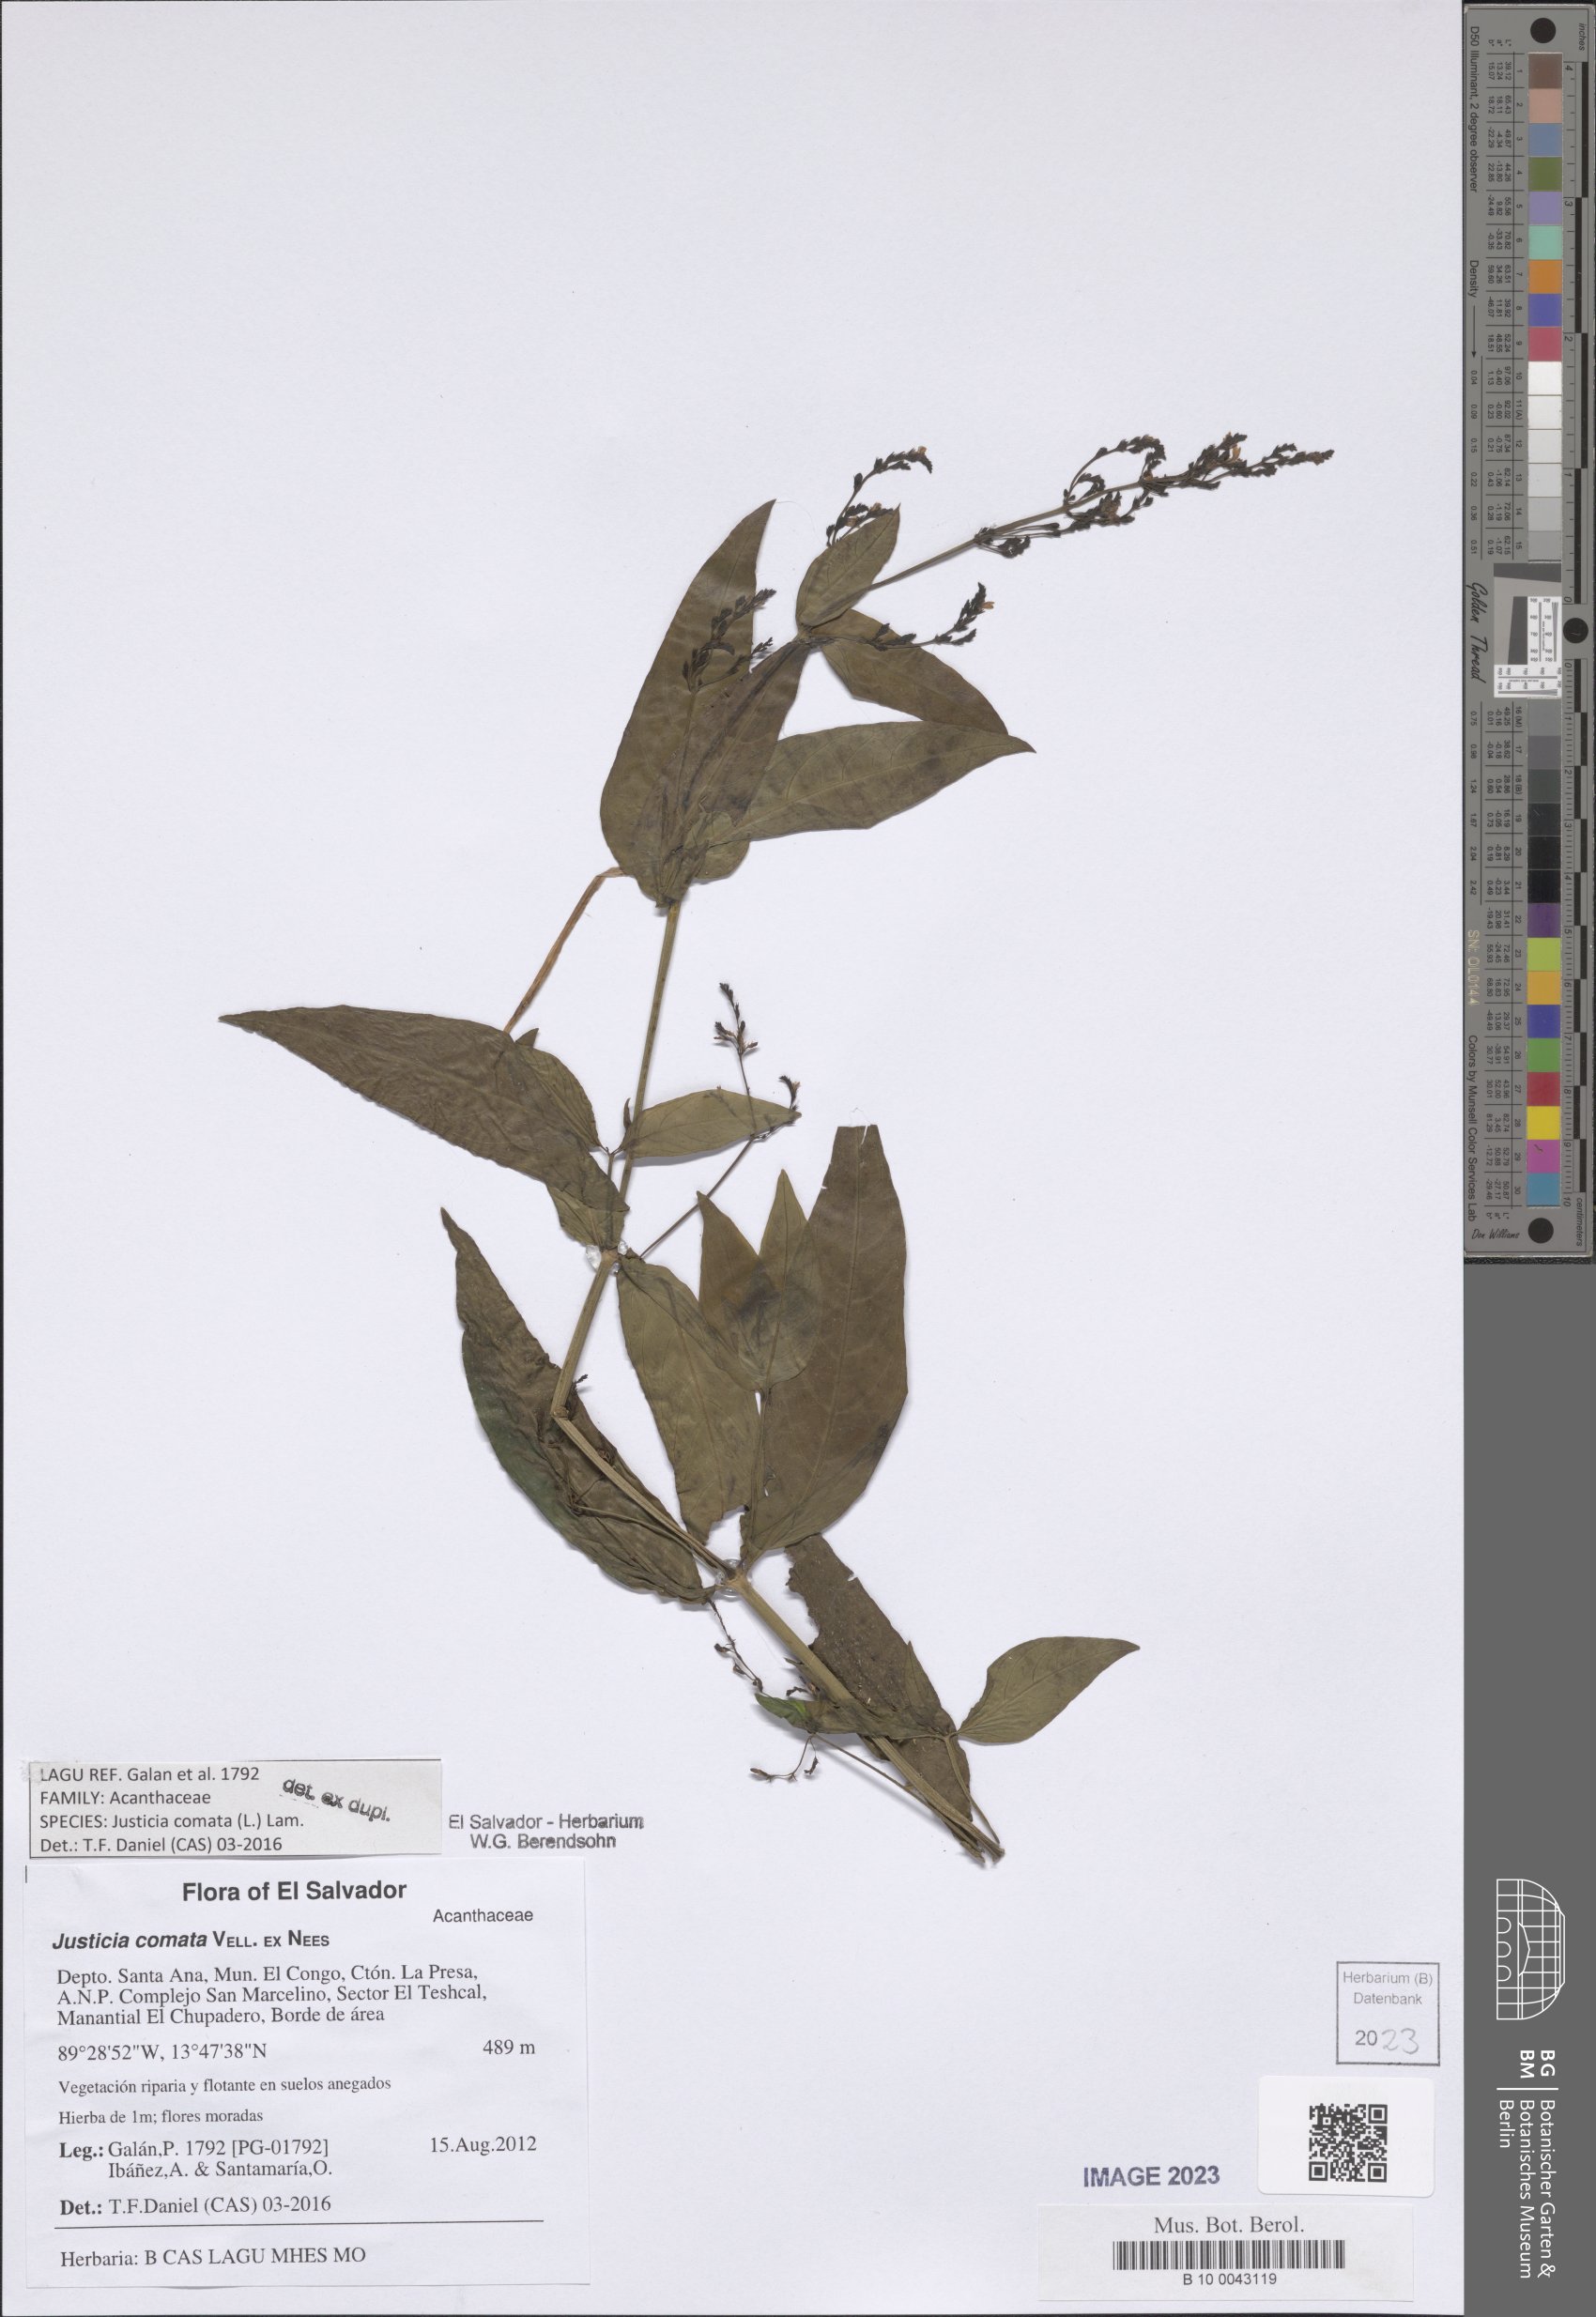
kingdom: Plantae
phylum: Tracheophyta
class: Magnoliopsida
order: Lamiales
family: Acanthaceae
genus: Dianthera
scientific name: Dianthera comata
